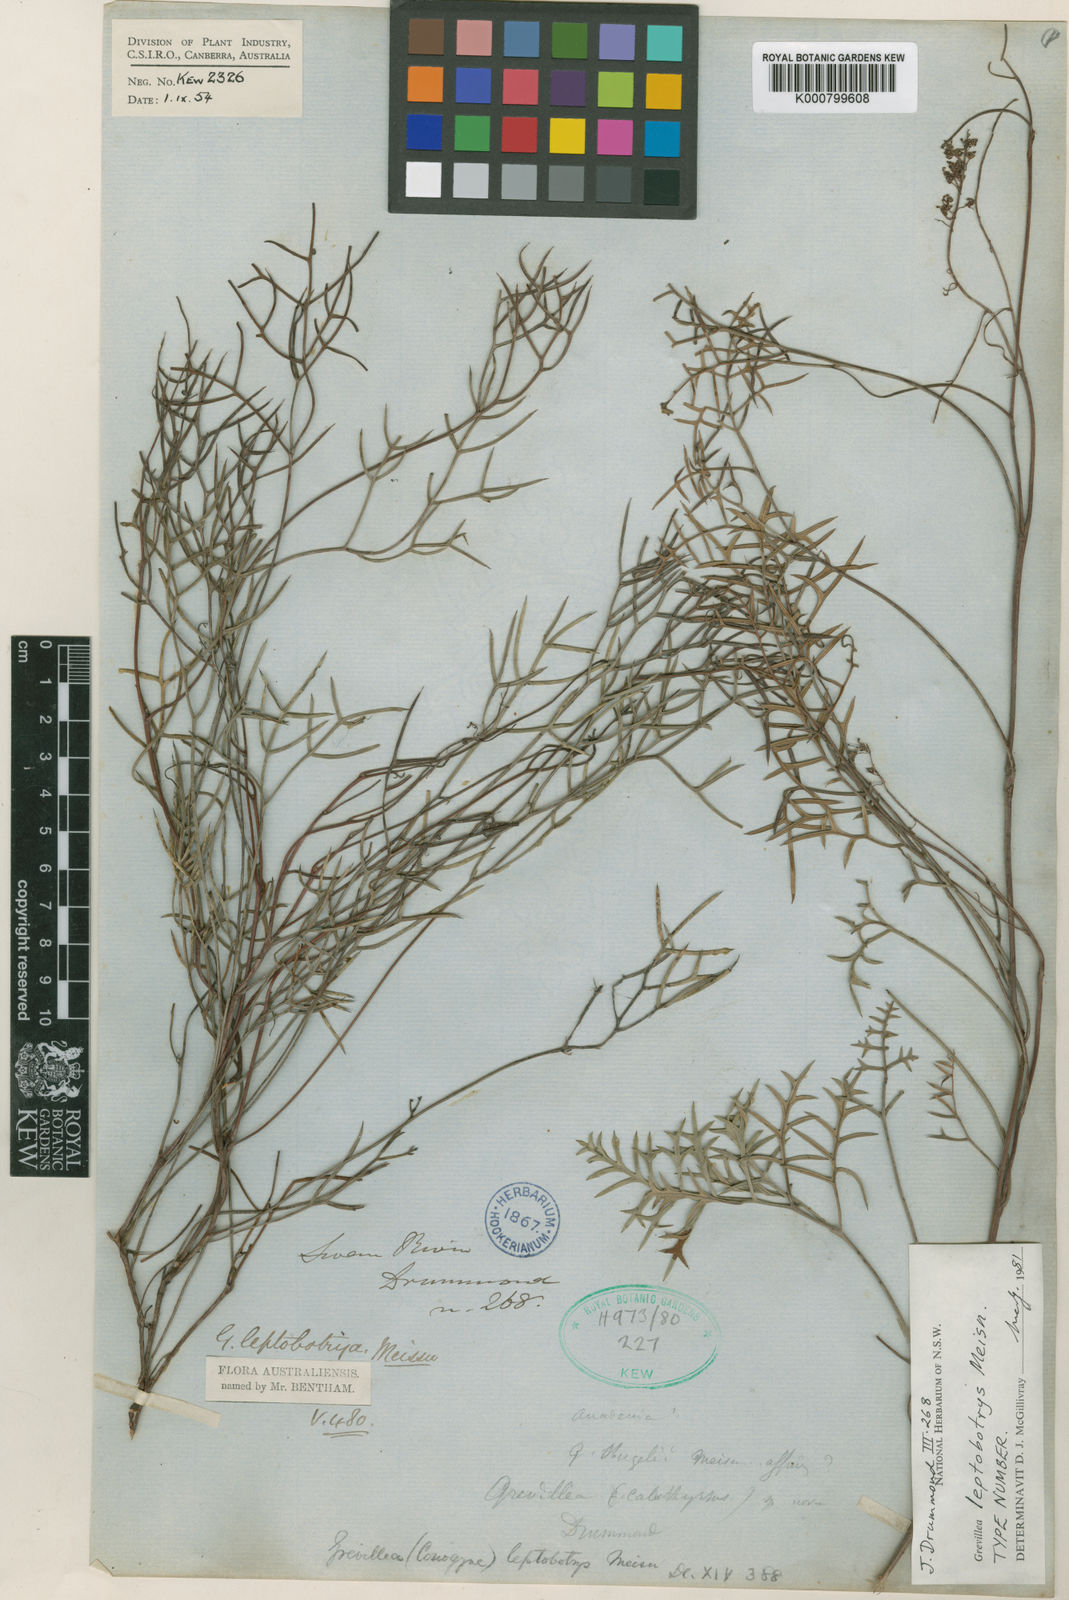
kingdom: Plantae
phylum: Tracheophyta
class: Magnoliopsida
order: Proteales
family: Proteaceae
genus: Grevillea
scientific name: Grevillea leptobotrys
